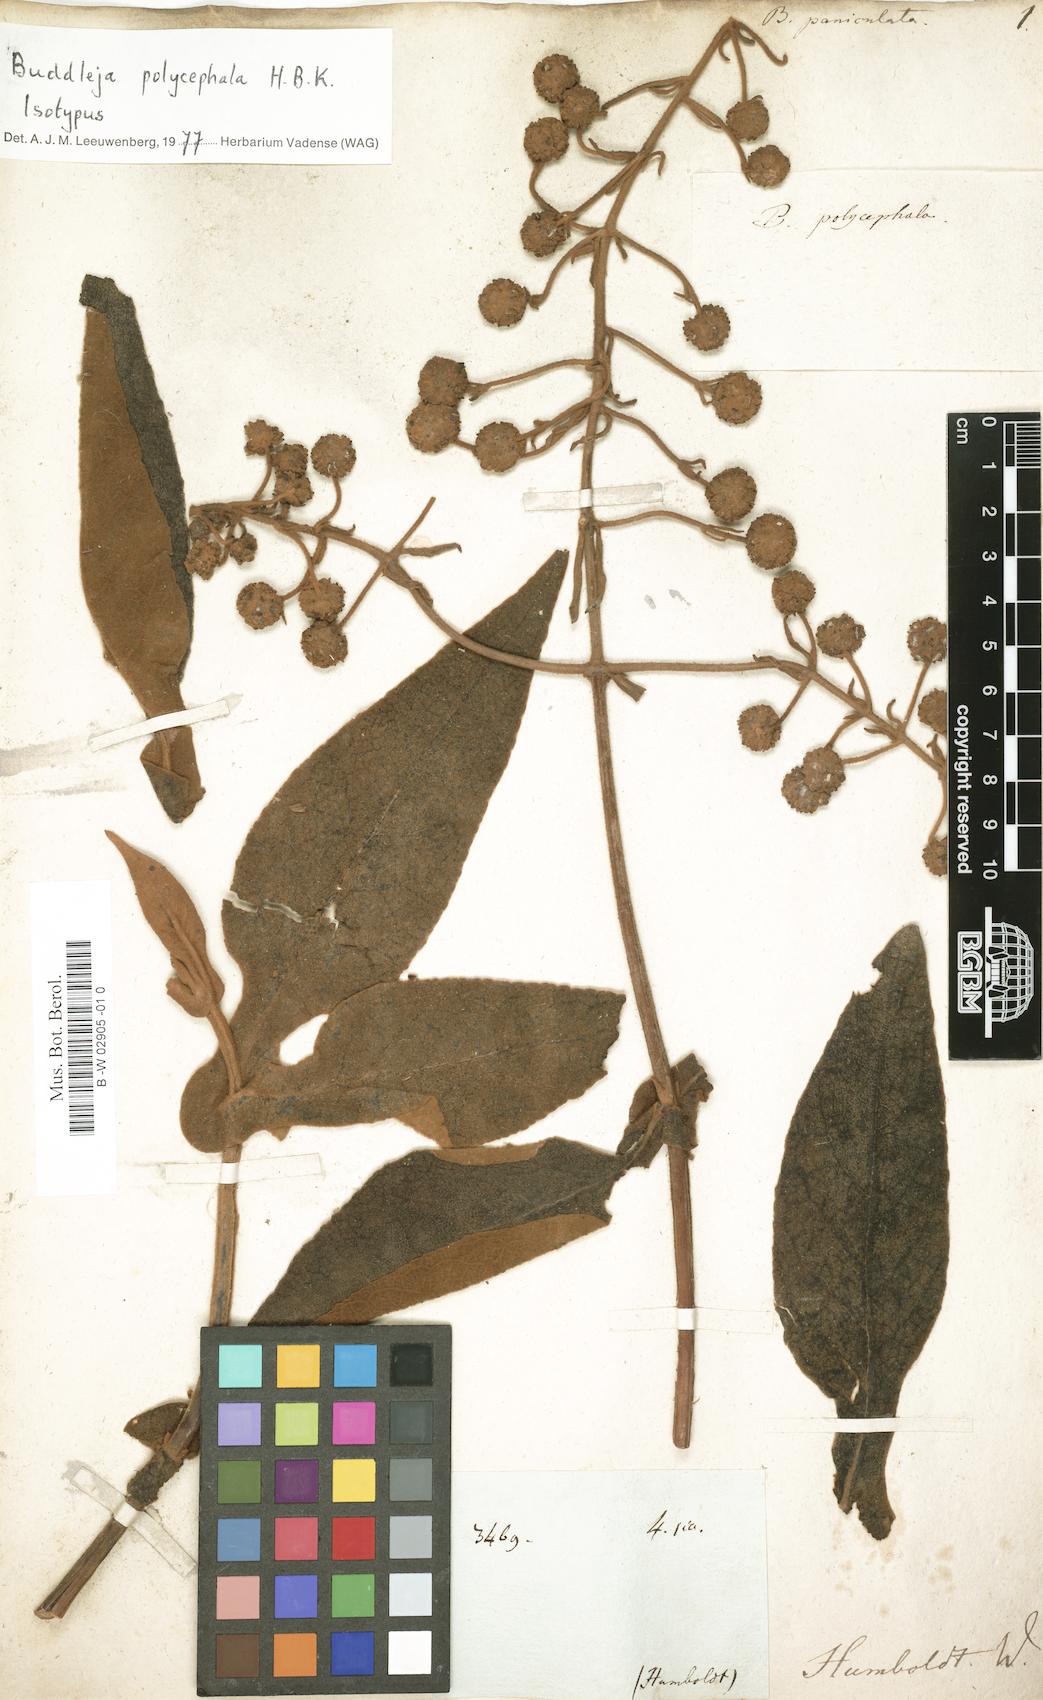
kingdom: Plantae
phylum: Tracheophyta
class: Magnoliopsida
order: Lamiales
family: Scrophulariaceae
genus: Buddleja
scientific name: Buddleja paniculata
